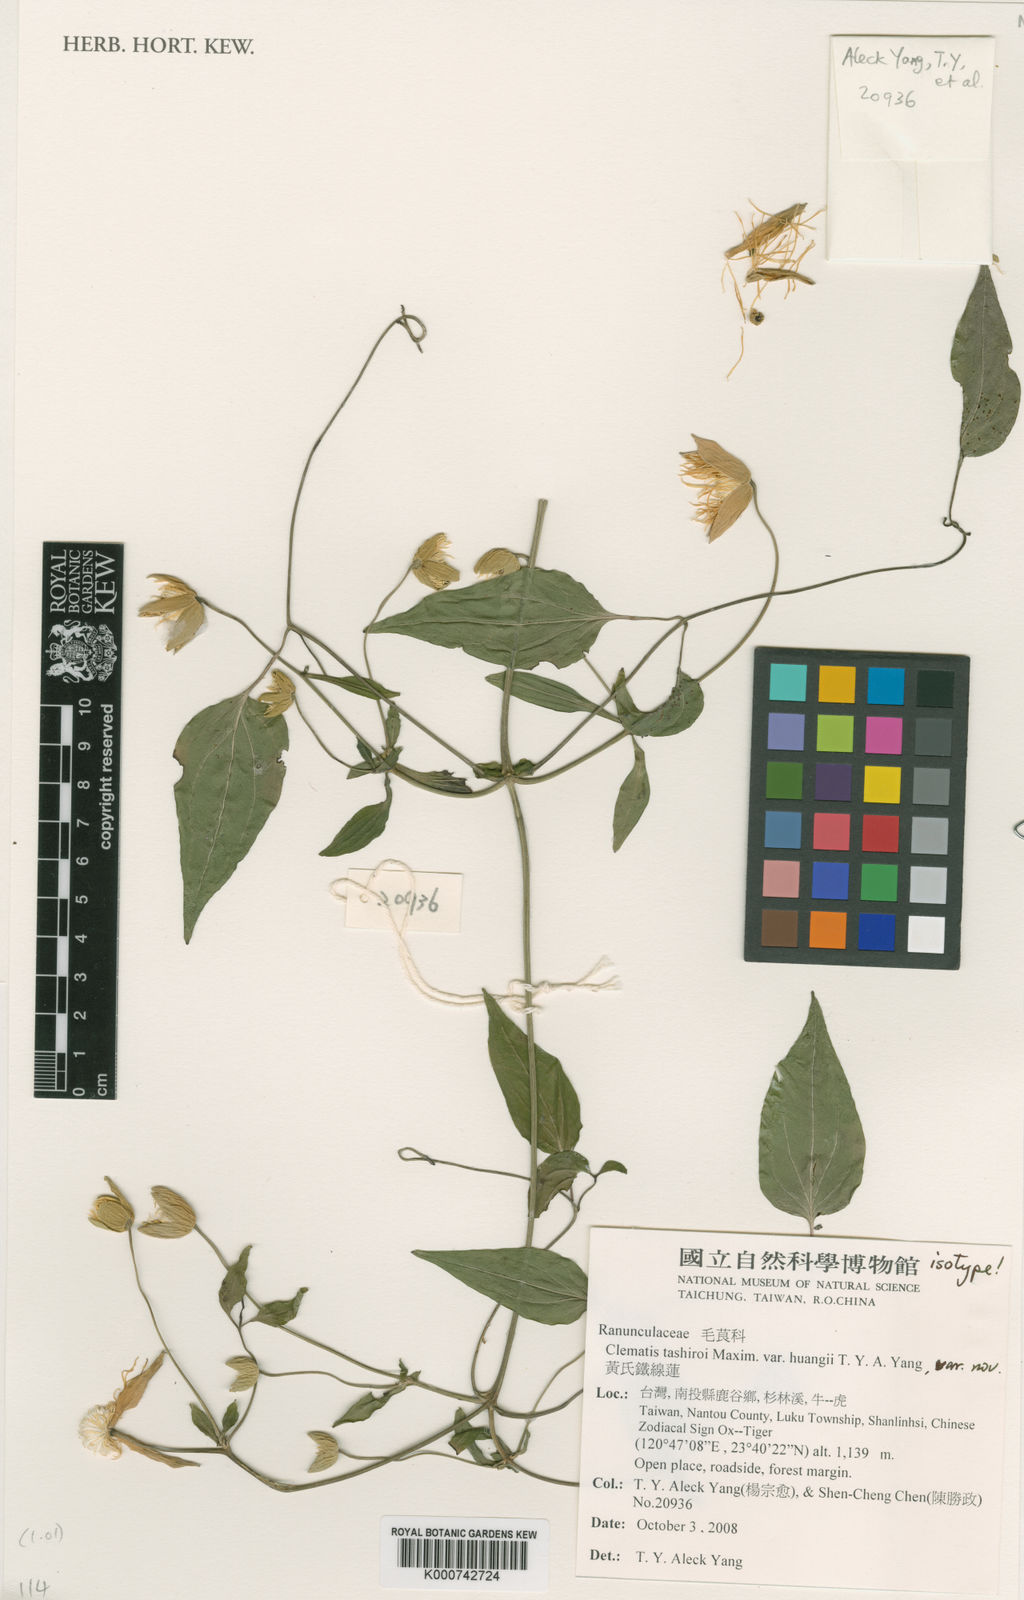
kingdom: Plantae
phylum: Tracheophyta
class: Magnoliopsida
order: Ranunculales
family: Ranunculaceae
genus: Clematis
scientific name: Clematis tashiroi
